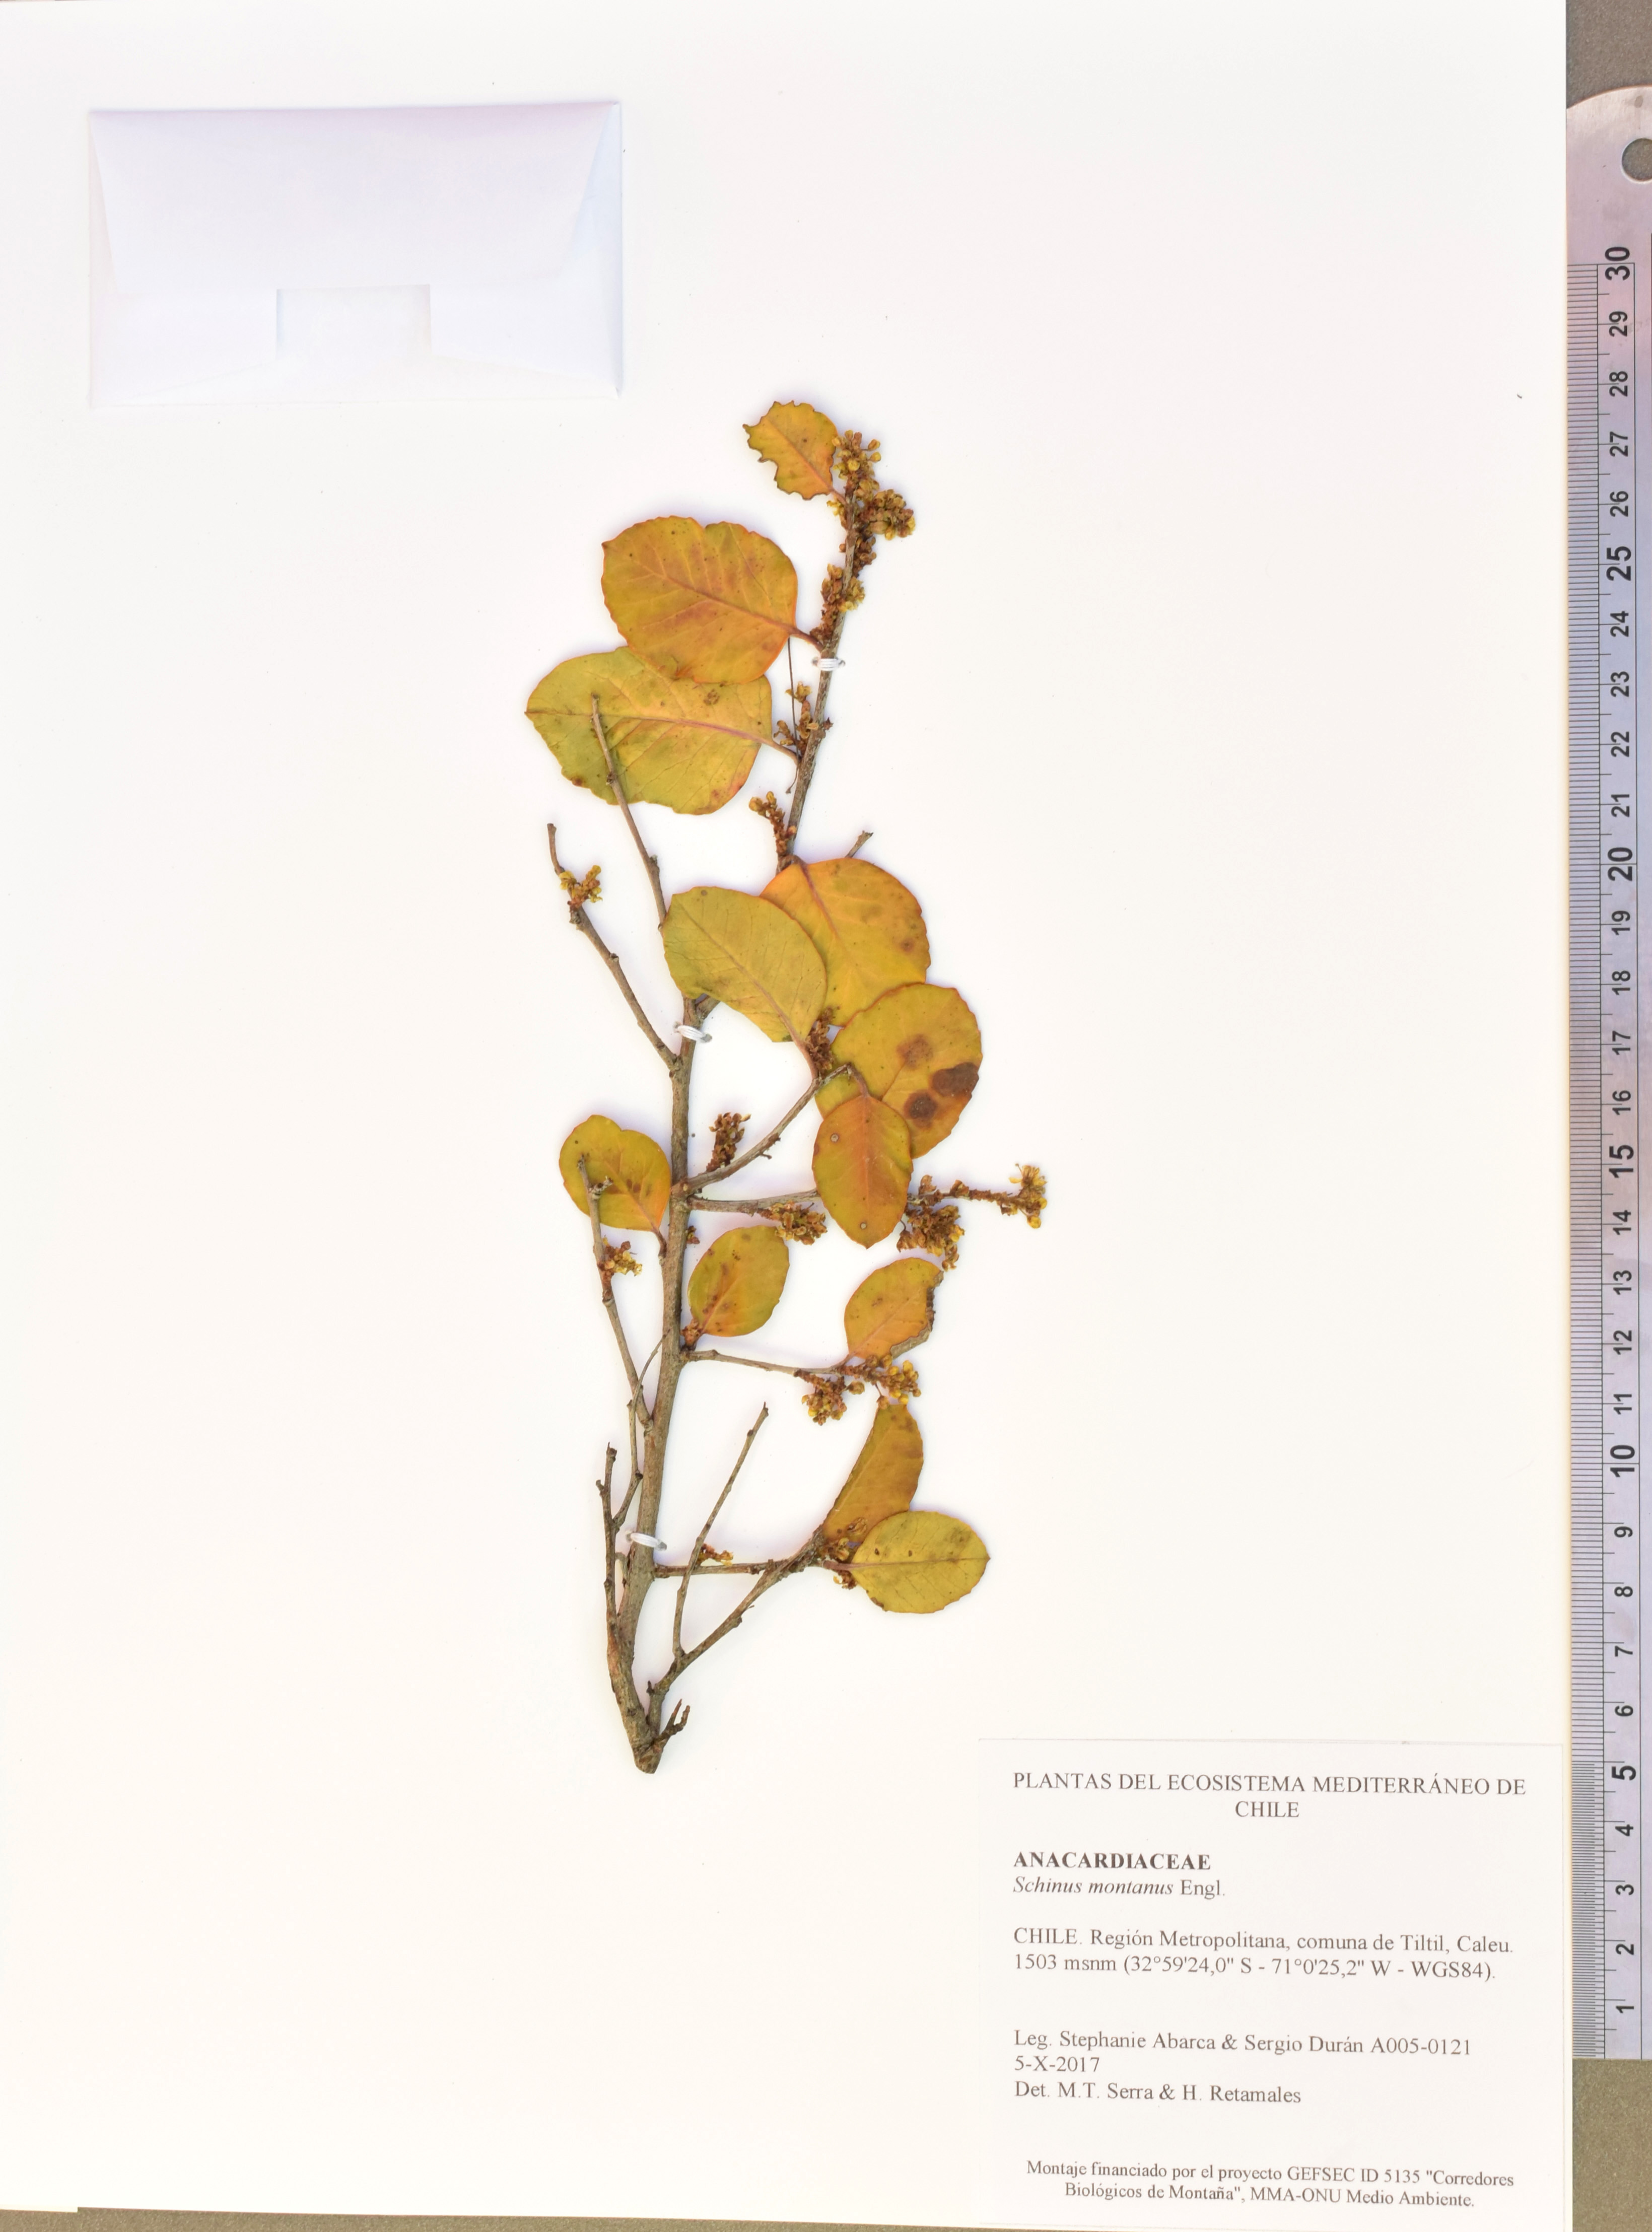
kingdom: Plantae
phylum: Tracheophyta
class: Magnoliopsida
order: Sapindales
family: Anacardiaceae
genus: Schinus
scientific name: Schinus montana
